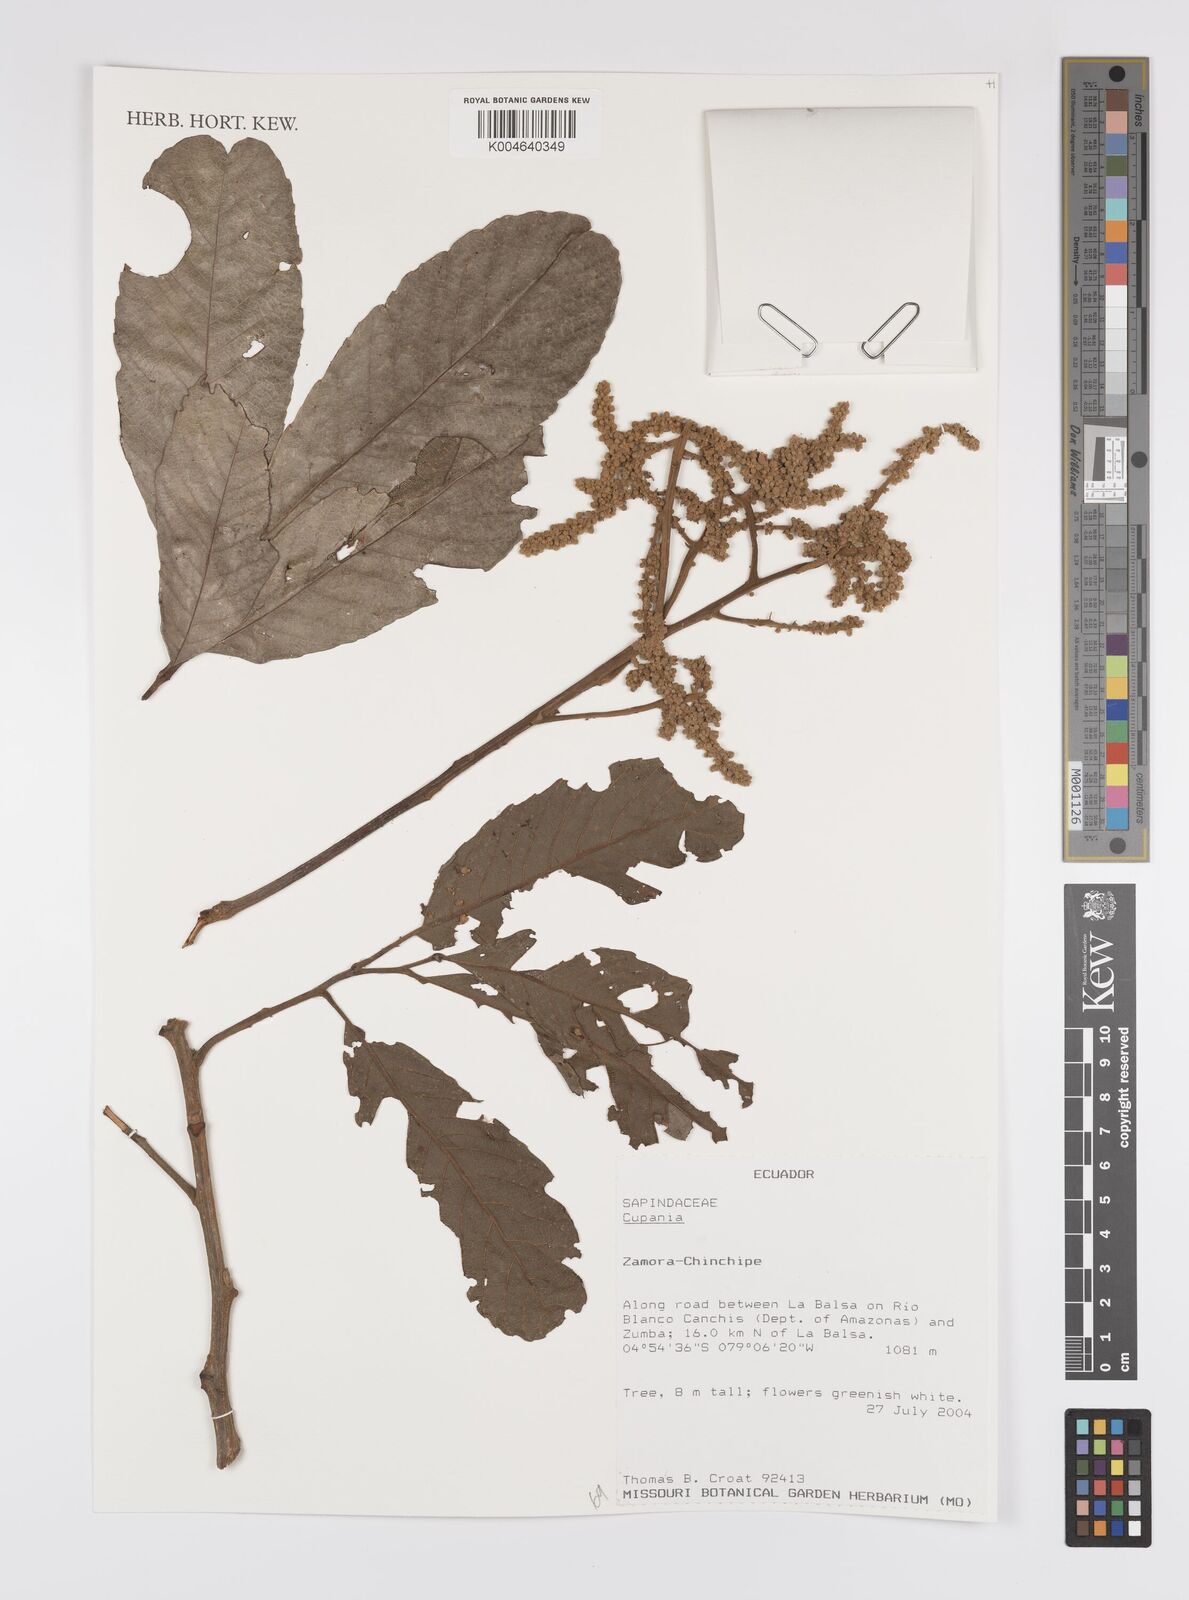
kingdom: Plantae
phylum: Tracheophyta
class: Magnoliopsida
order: Sapindales
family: Sapindaceae
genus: Cupania
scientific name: Cupania
